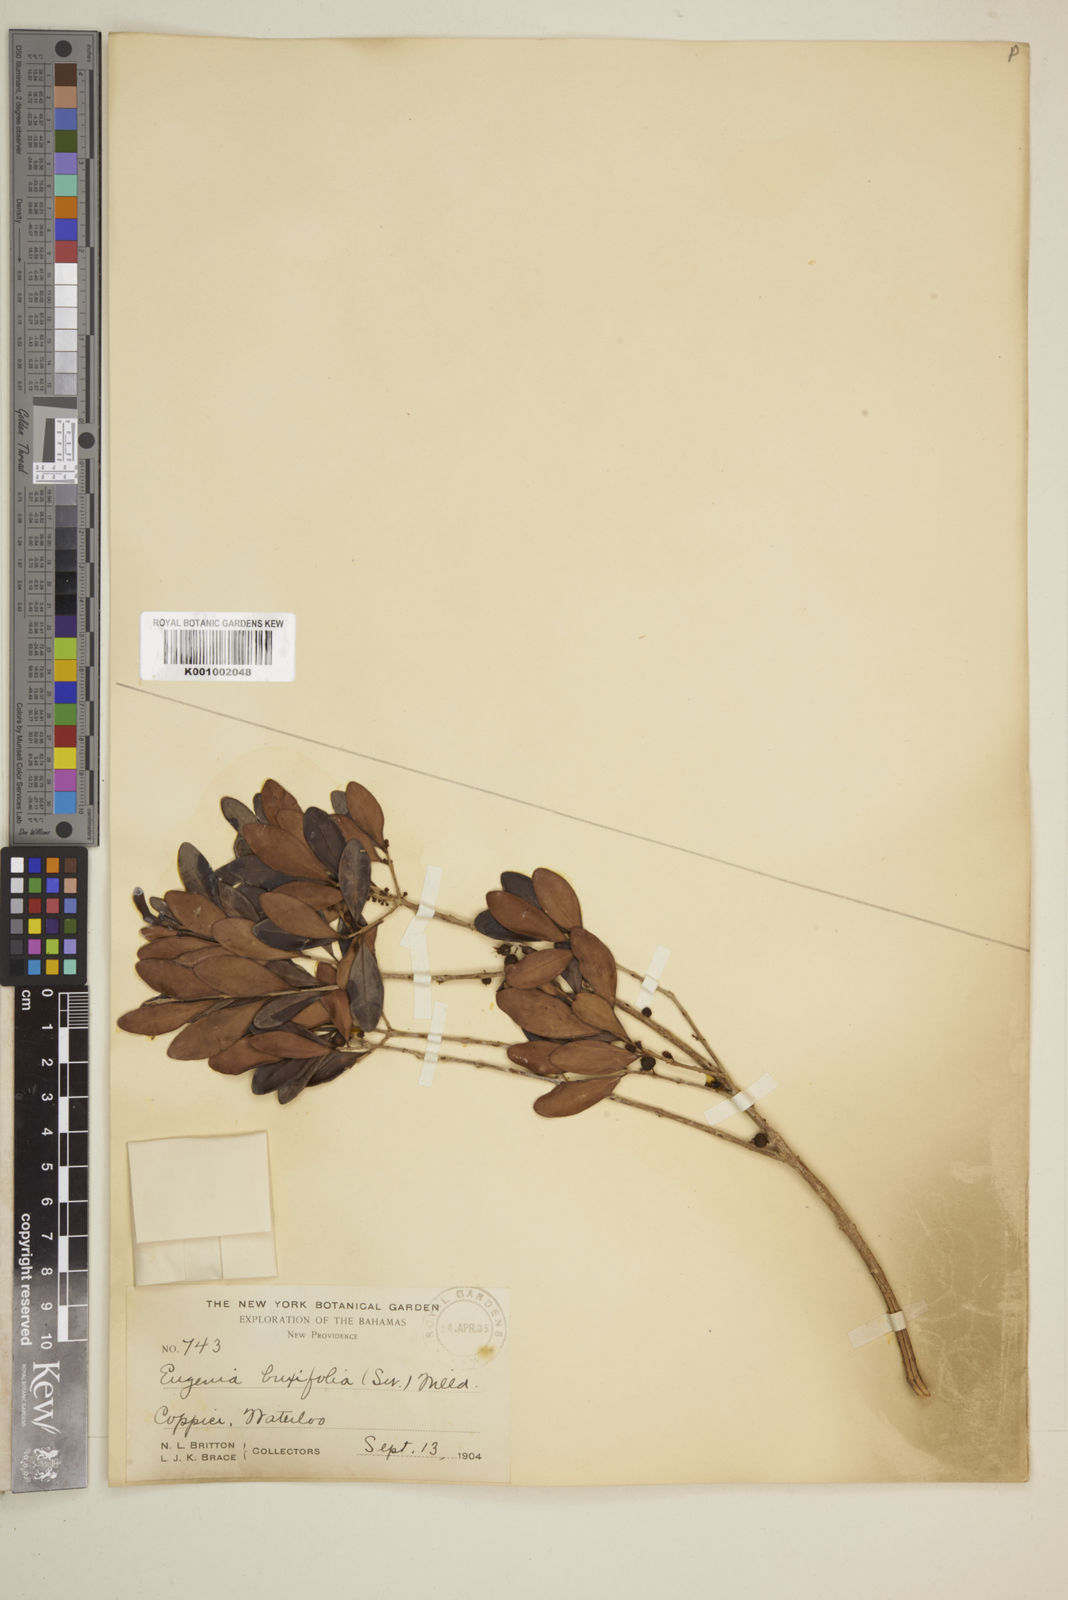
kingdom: Plantae
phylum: Tracheophyta
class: Magnoliopsida
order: Myrtales
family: Myrtaceae
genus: Eugenia
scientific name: Eugenia buxifolia
